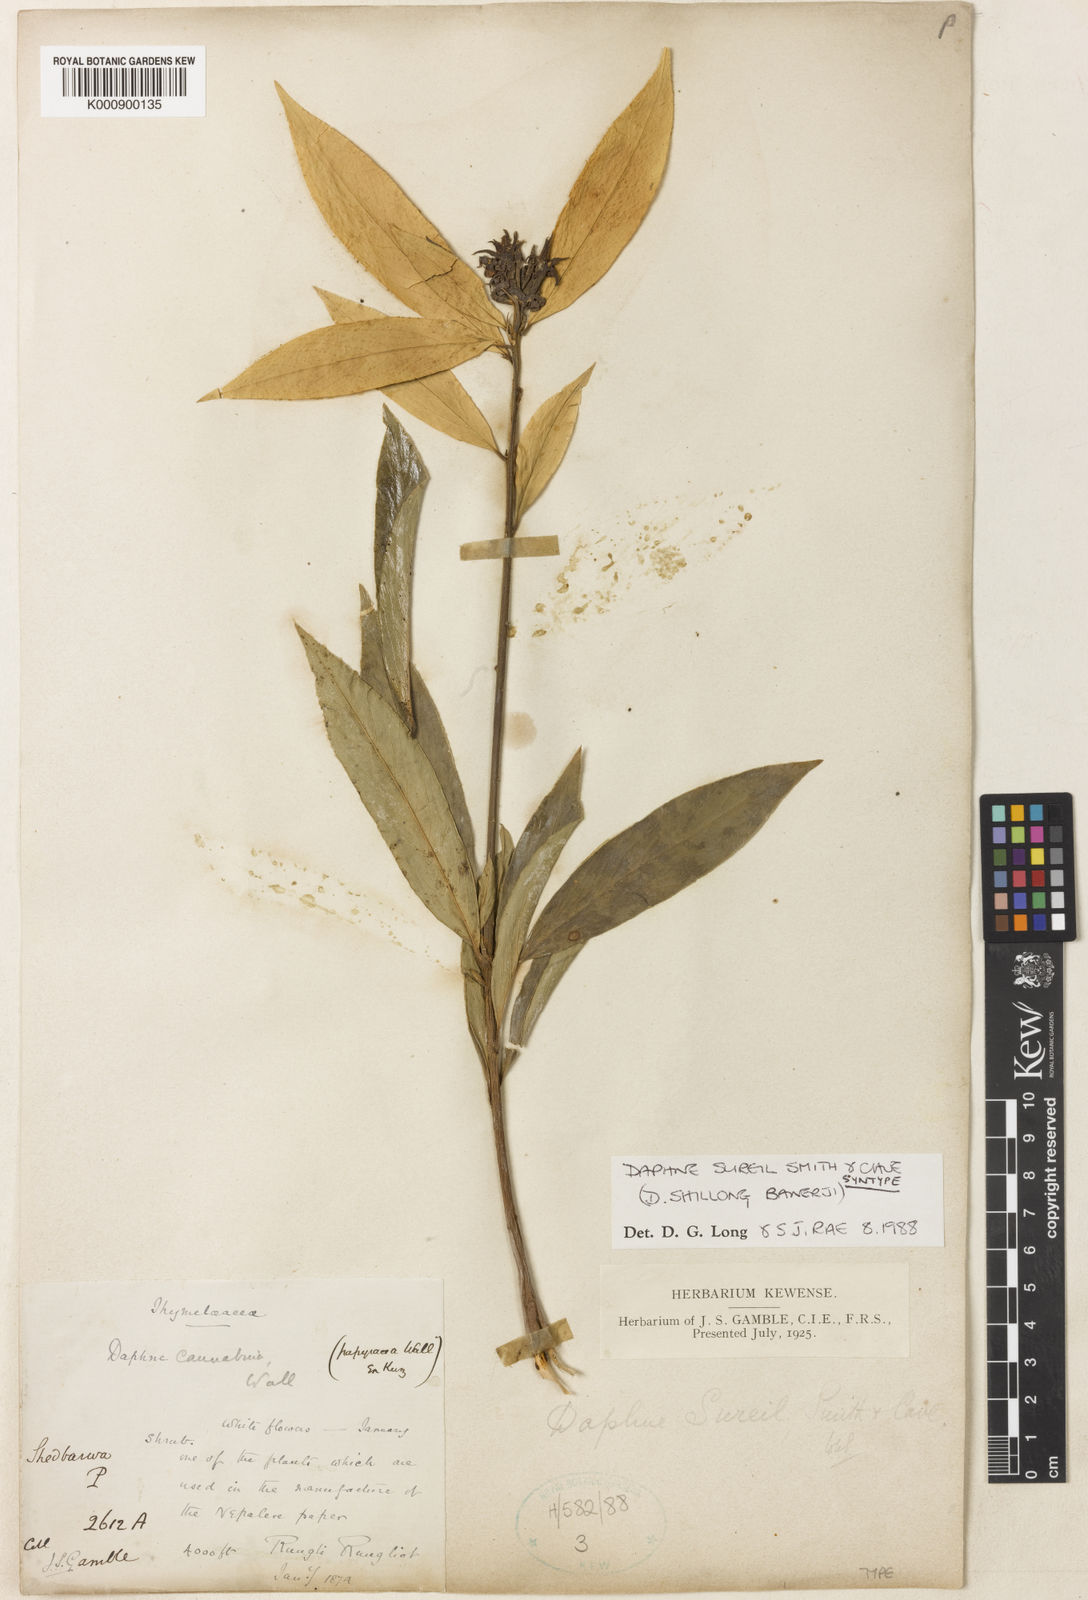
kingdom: Plantae
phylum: Tracheophyta
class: Magnoliopsida
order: Malvales
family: Thymelaeaceae
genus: Daphne
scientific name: Daphne sureil
